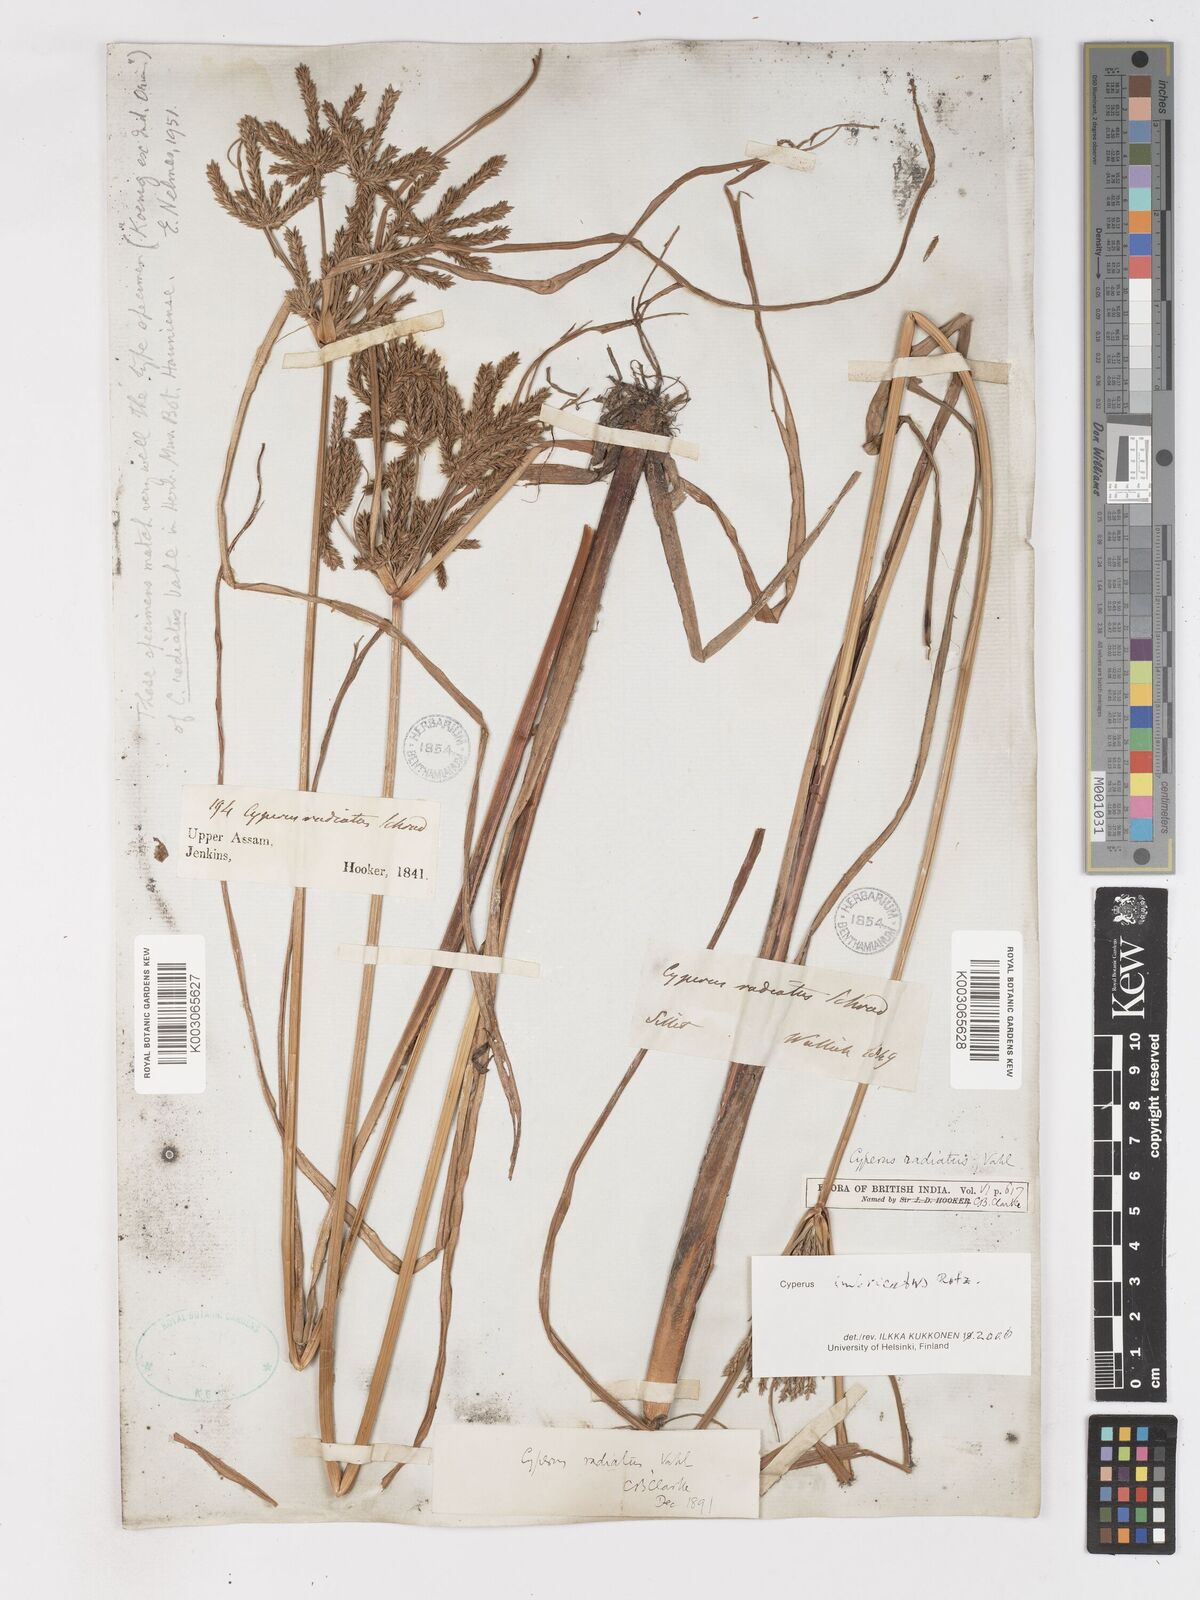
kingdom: Plantae
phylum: Tracheophyta
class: Liliopsida
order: Poales
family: Cyperaceae
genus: Cyperus
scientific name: Cyperus imbricatus
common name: Shingle flatsedge
